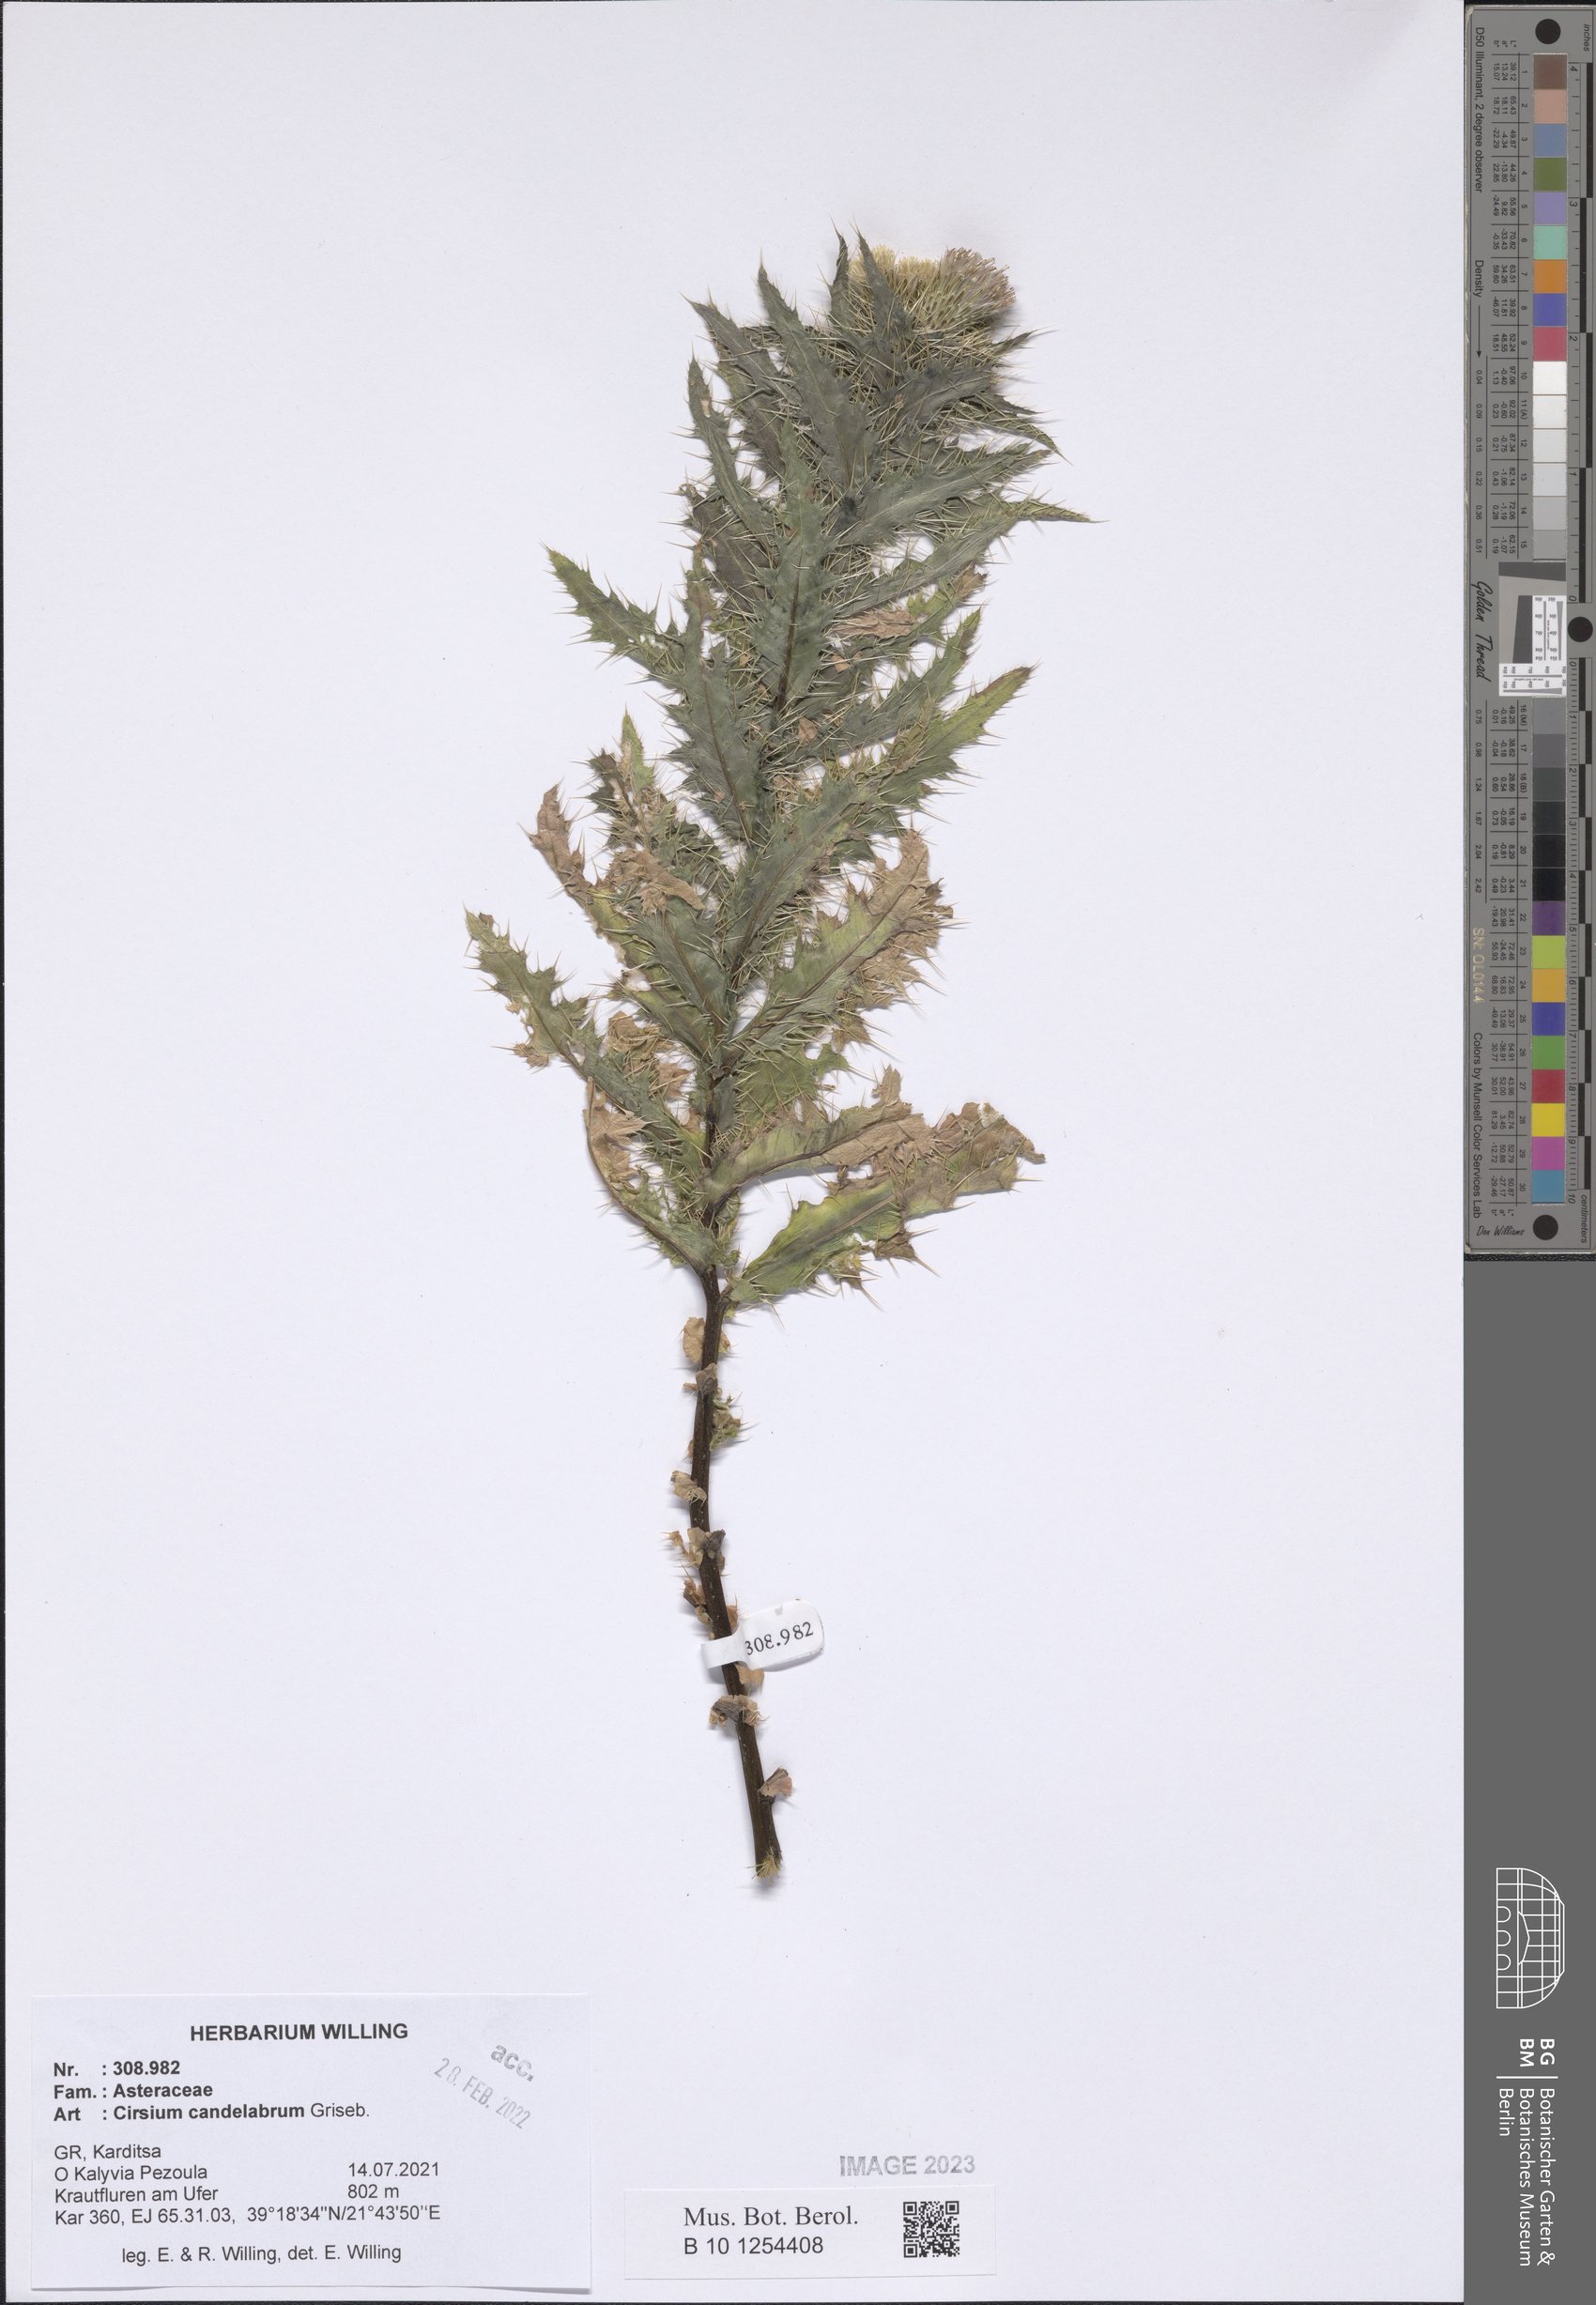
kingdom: Plantae
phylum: Tracheophyta
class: Magnoliopsida
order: Asterales
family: Asteraceae
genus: Cirsium
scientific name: Cirsium candelabrum
